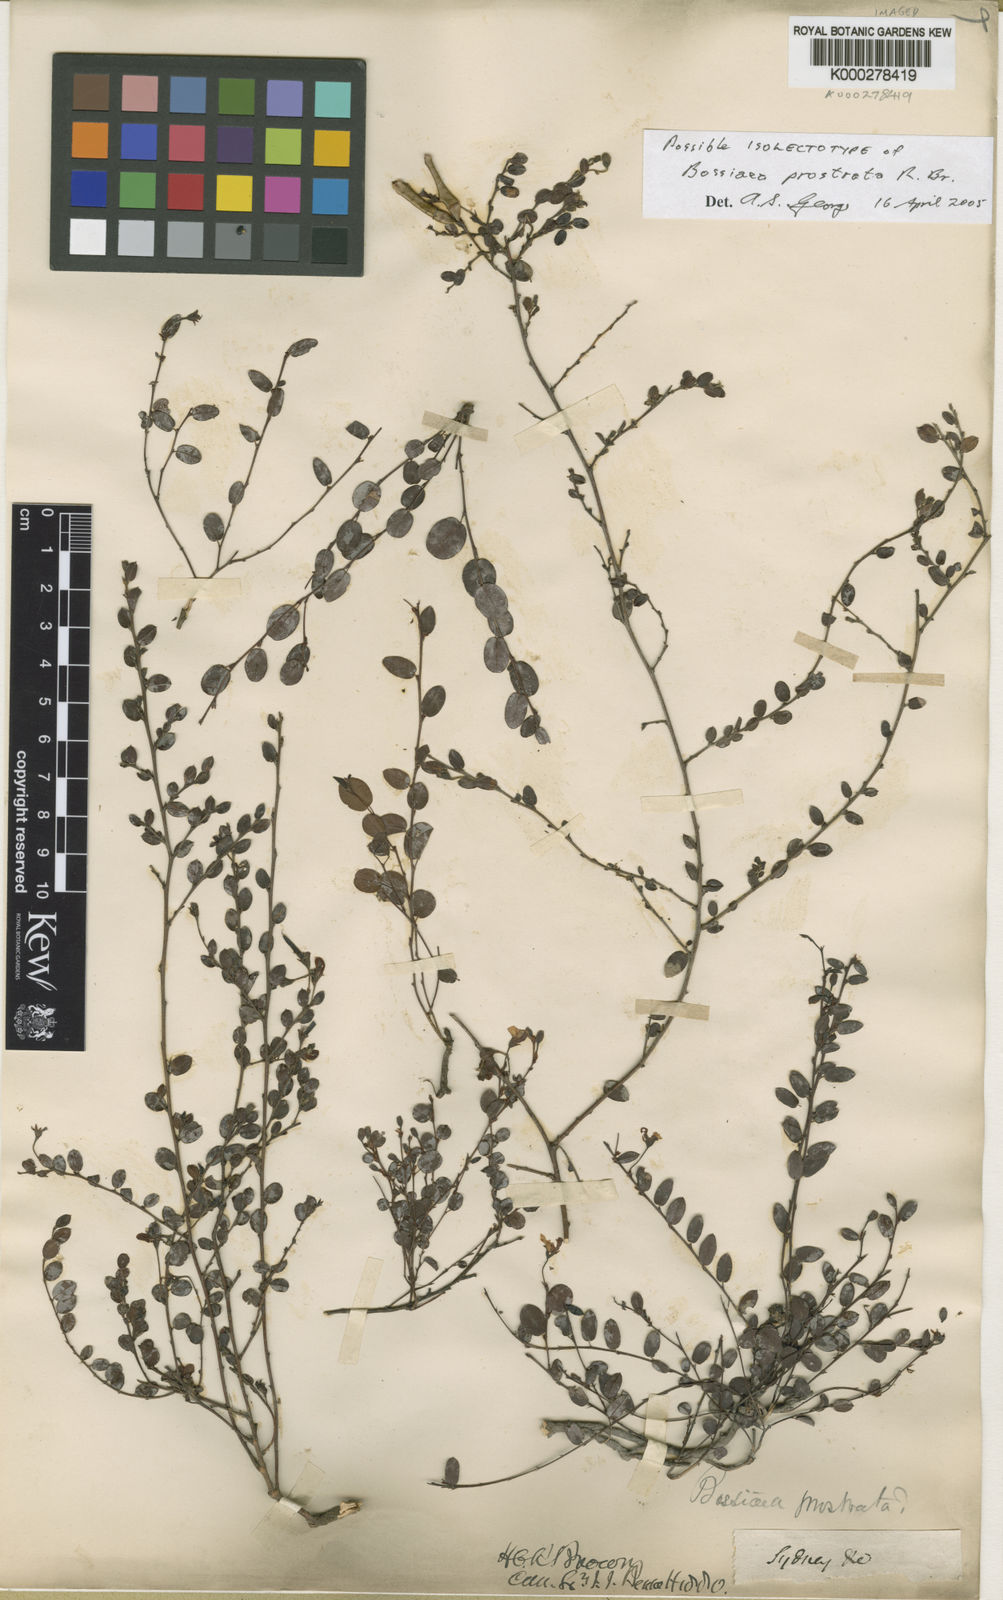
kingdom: Plantae
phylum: Tracheophyta
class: Magnoliopsida
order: Fabales
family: Fabaceae
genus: Bossiaea
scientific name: Bossiaea prostrata
